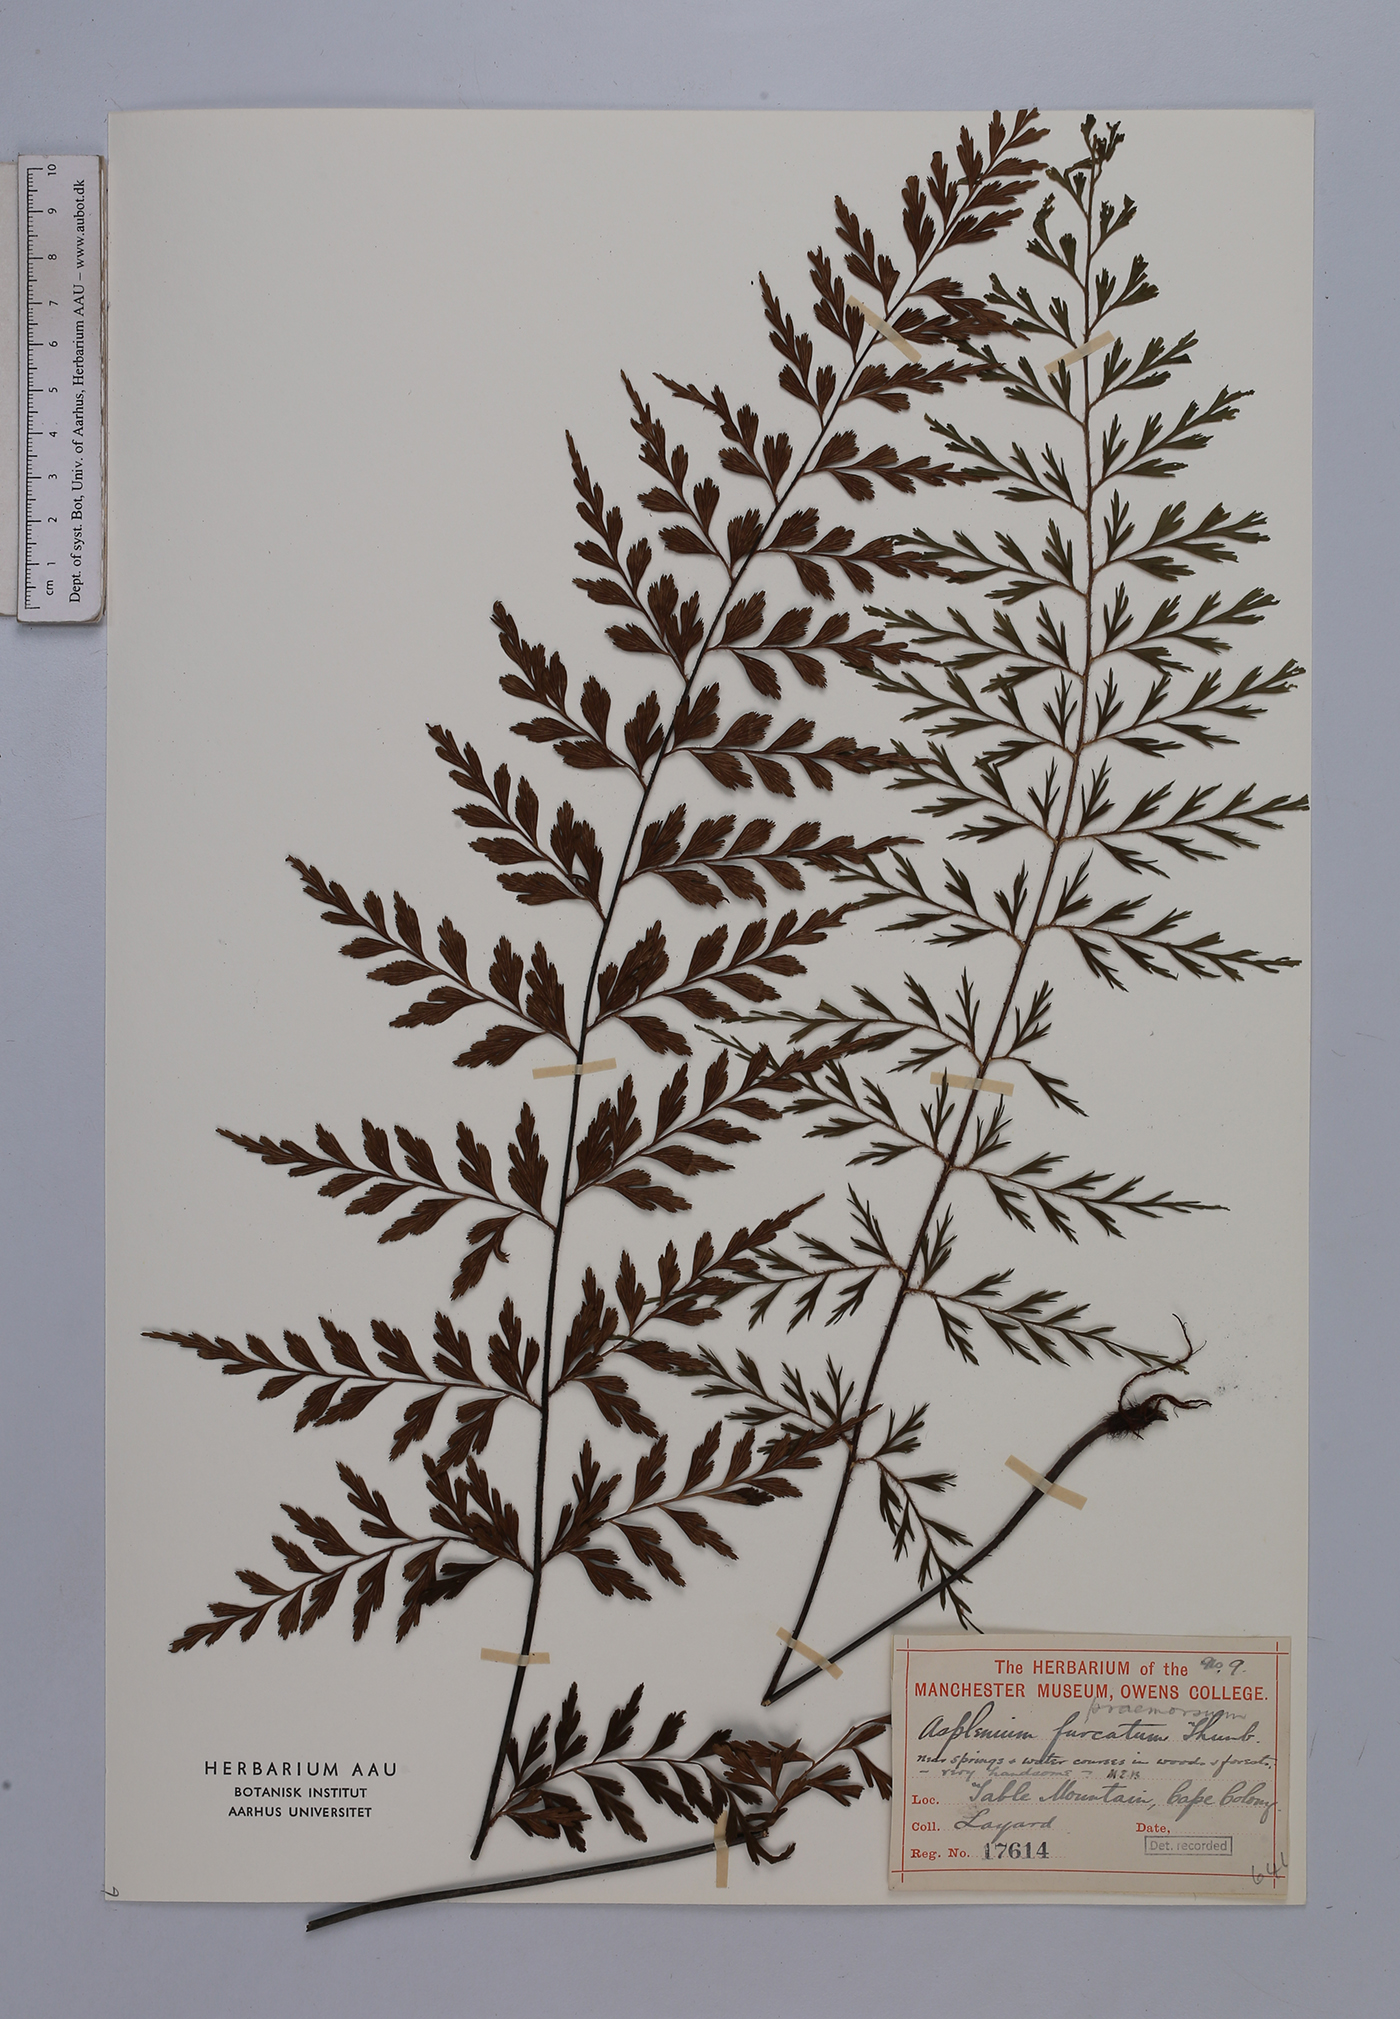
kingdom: Plantae
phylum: Tracheophyta
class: Polypodiopsida
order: Polypodiales
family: Aspleniaceae
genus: Asplenium
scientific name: Asplenium praemorsum
